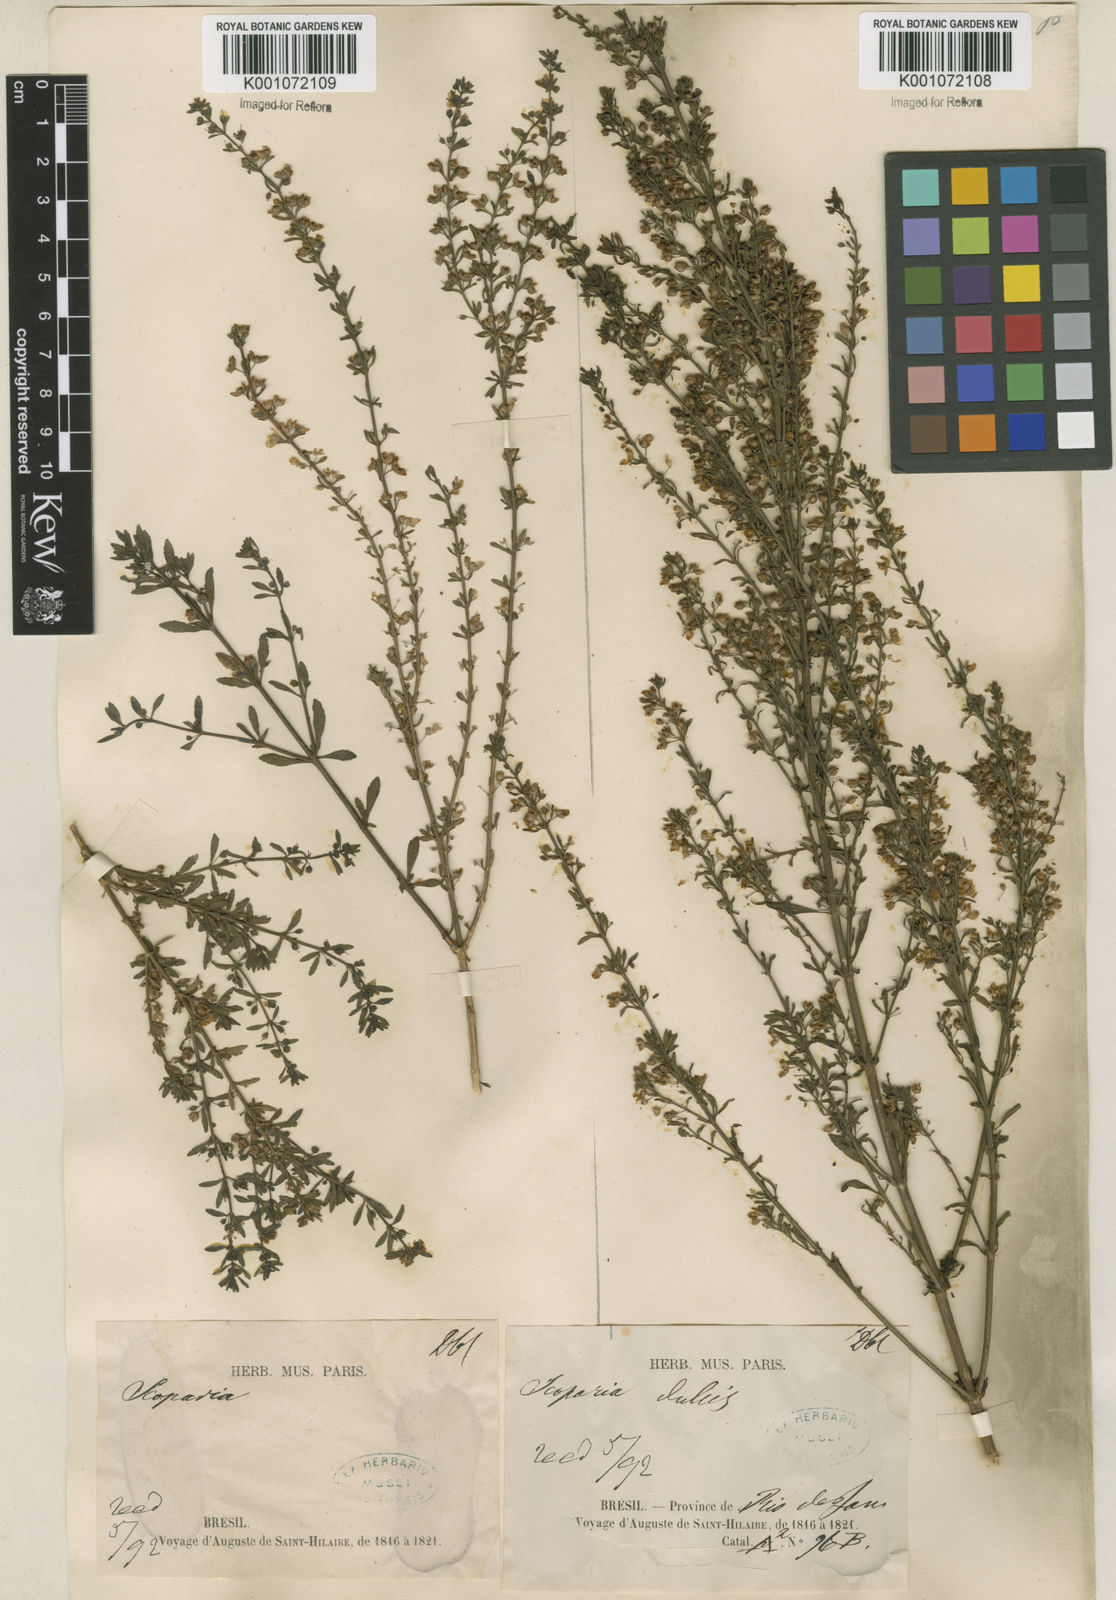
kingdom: Plantae
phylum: Tracheophyta
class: Magnoliopsida
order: Lamiales
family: Plantaginaceae
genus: Scoparia
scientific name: Scoparia dulcis
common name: Scoparia-weed
